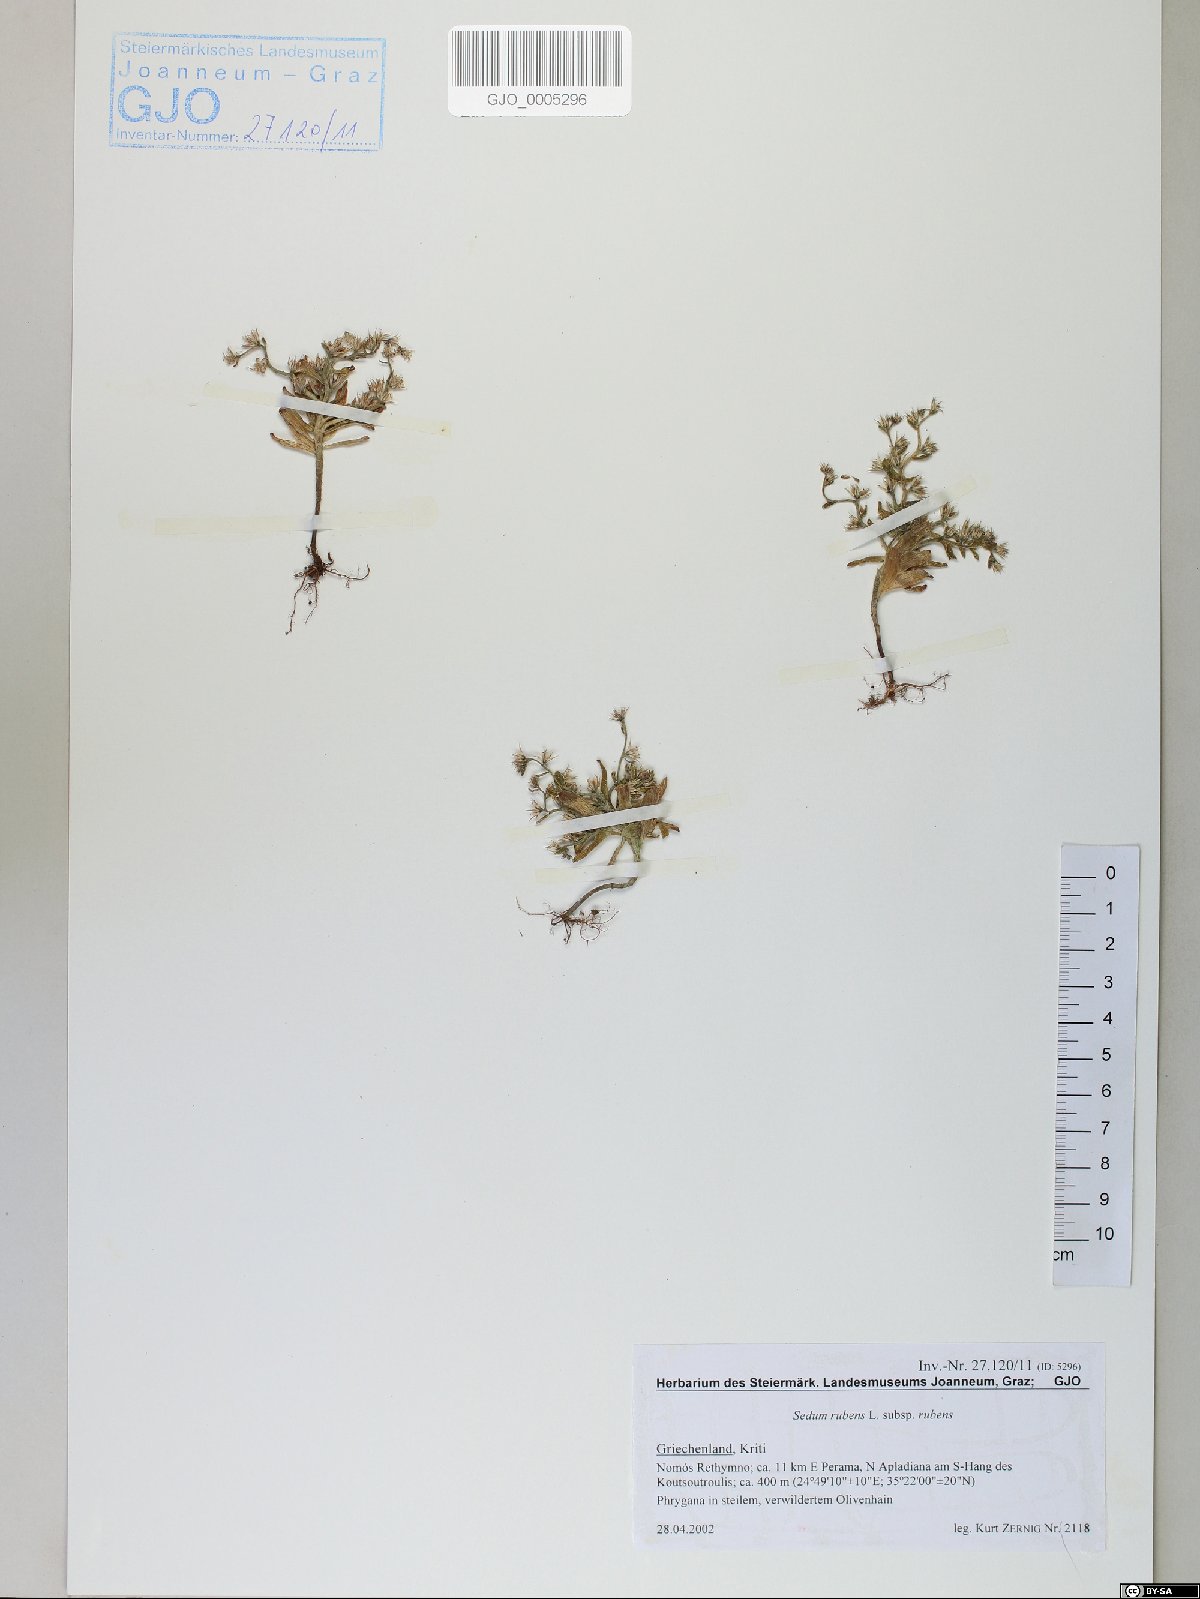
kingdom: Plantae
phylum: Tracheophyta
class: Magnoliopsida
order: Saxifragales
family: Crassulaceae
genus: Sedum
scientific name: Sedum rubens
